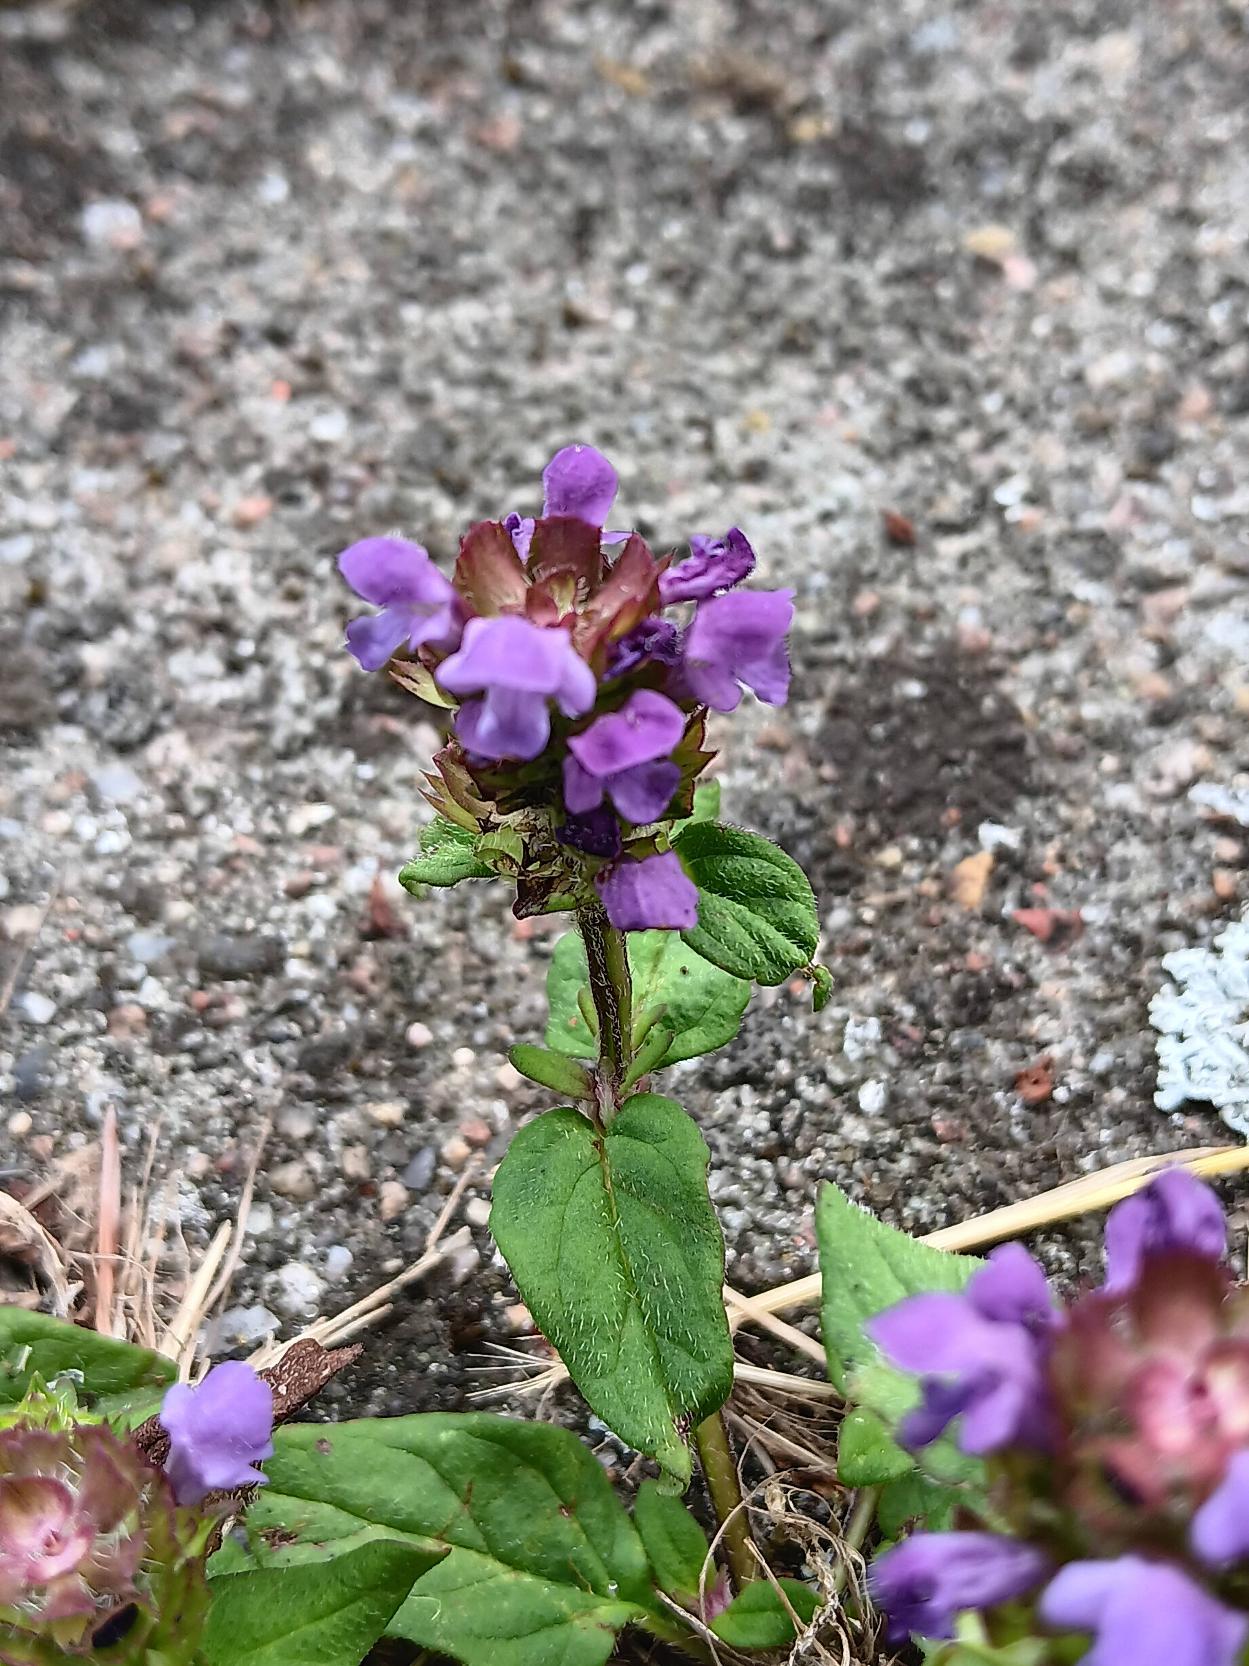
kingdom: Plantae
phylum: Tracheophyta
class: Magnoliopsida
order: Lamiales
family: Lamiaceae
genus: Prunella
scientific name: Prunella vulgaris
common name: Almindelig brunelle
